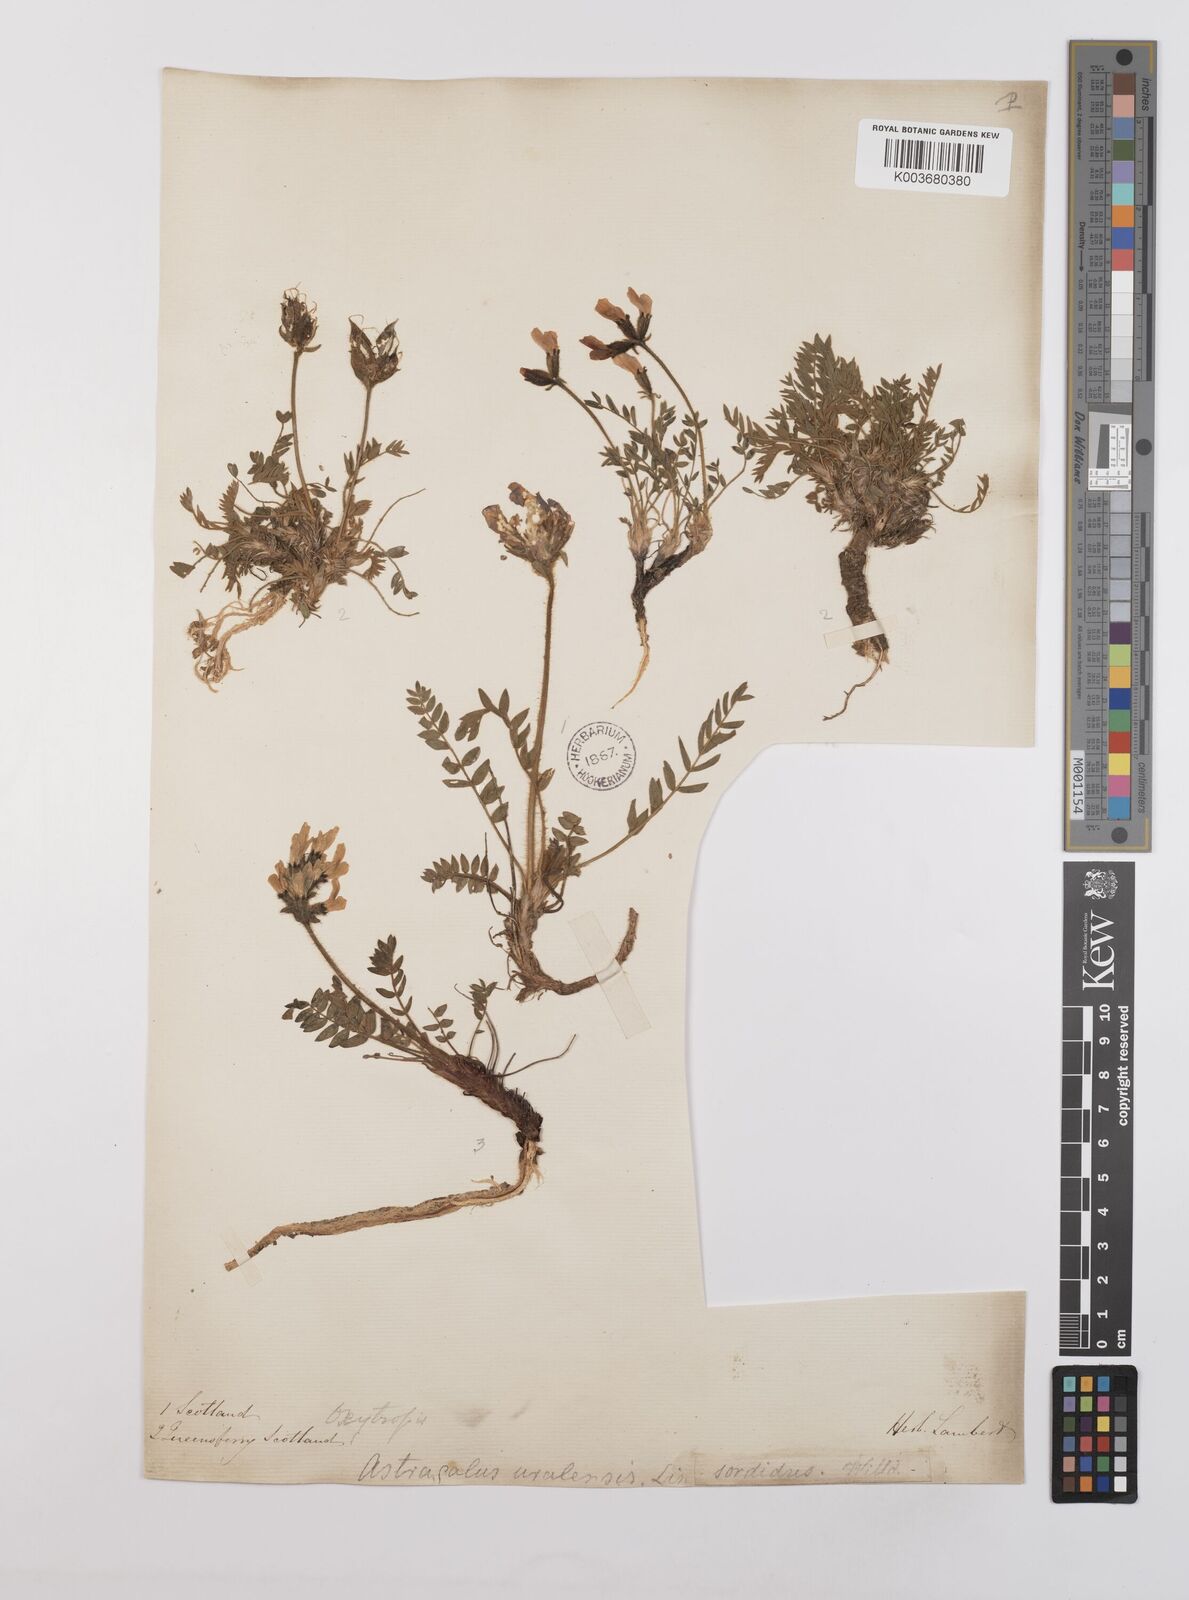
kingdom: Plantae
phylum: Tracheophyta
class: Magnoliopsida
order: Fabales
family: Fabaceae
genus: Oxytropis
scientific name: Oxytropis
